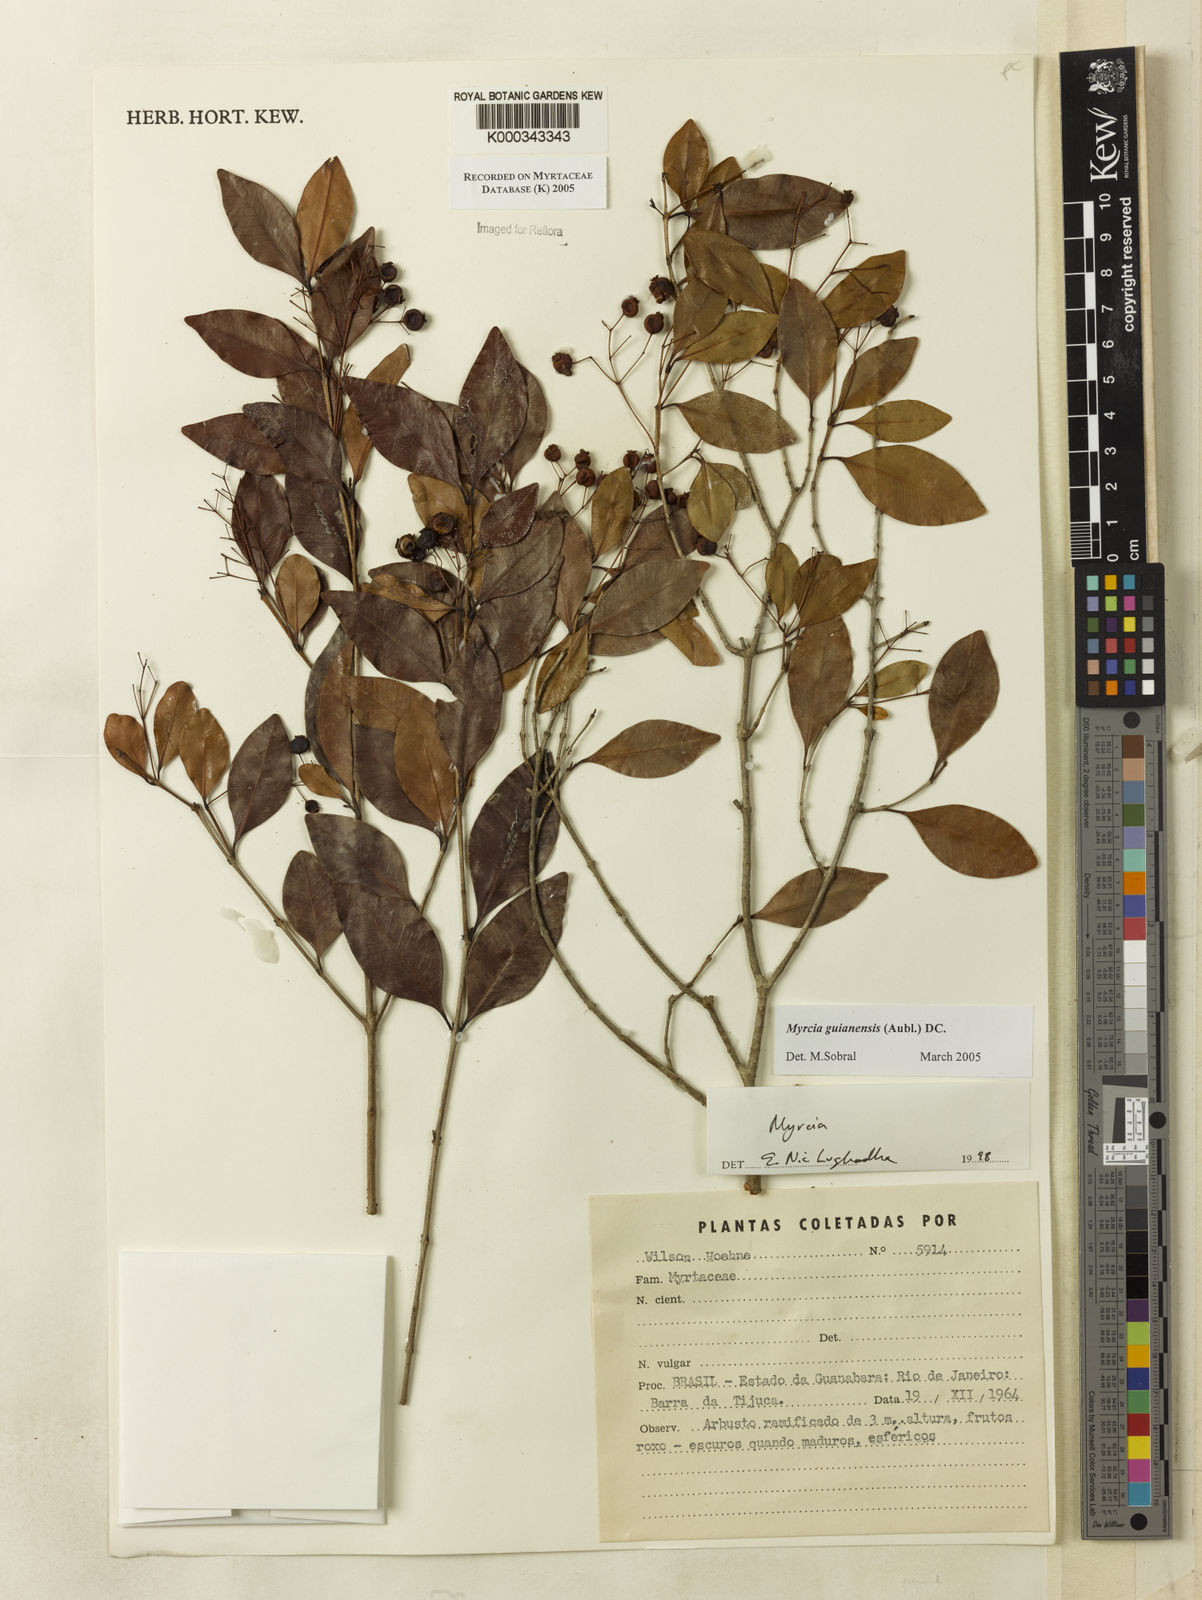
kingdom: Plantae
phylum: Tracheophyta
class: Magnoliopsida
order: Myrtales
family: Myrtaceae
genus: Myrcia
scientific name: Myrcia guianensis
